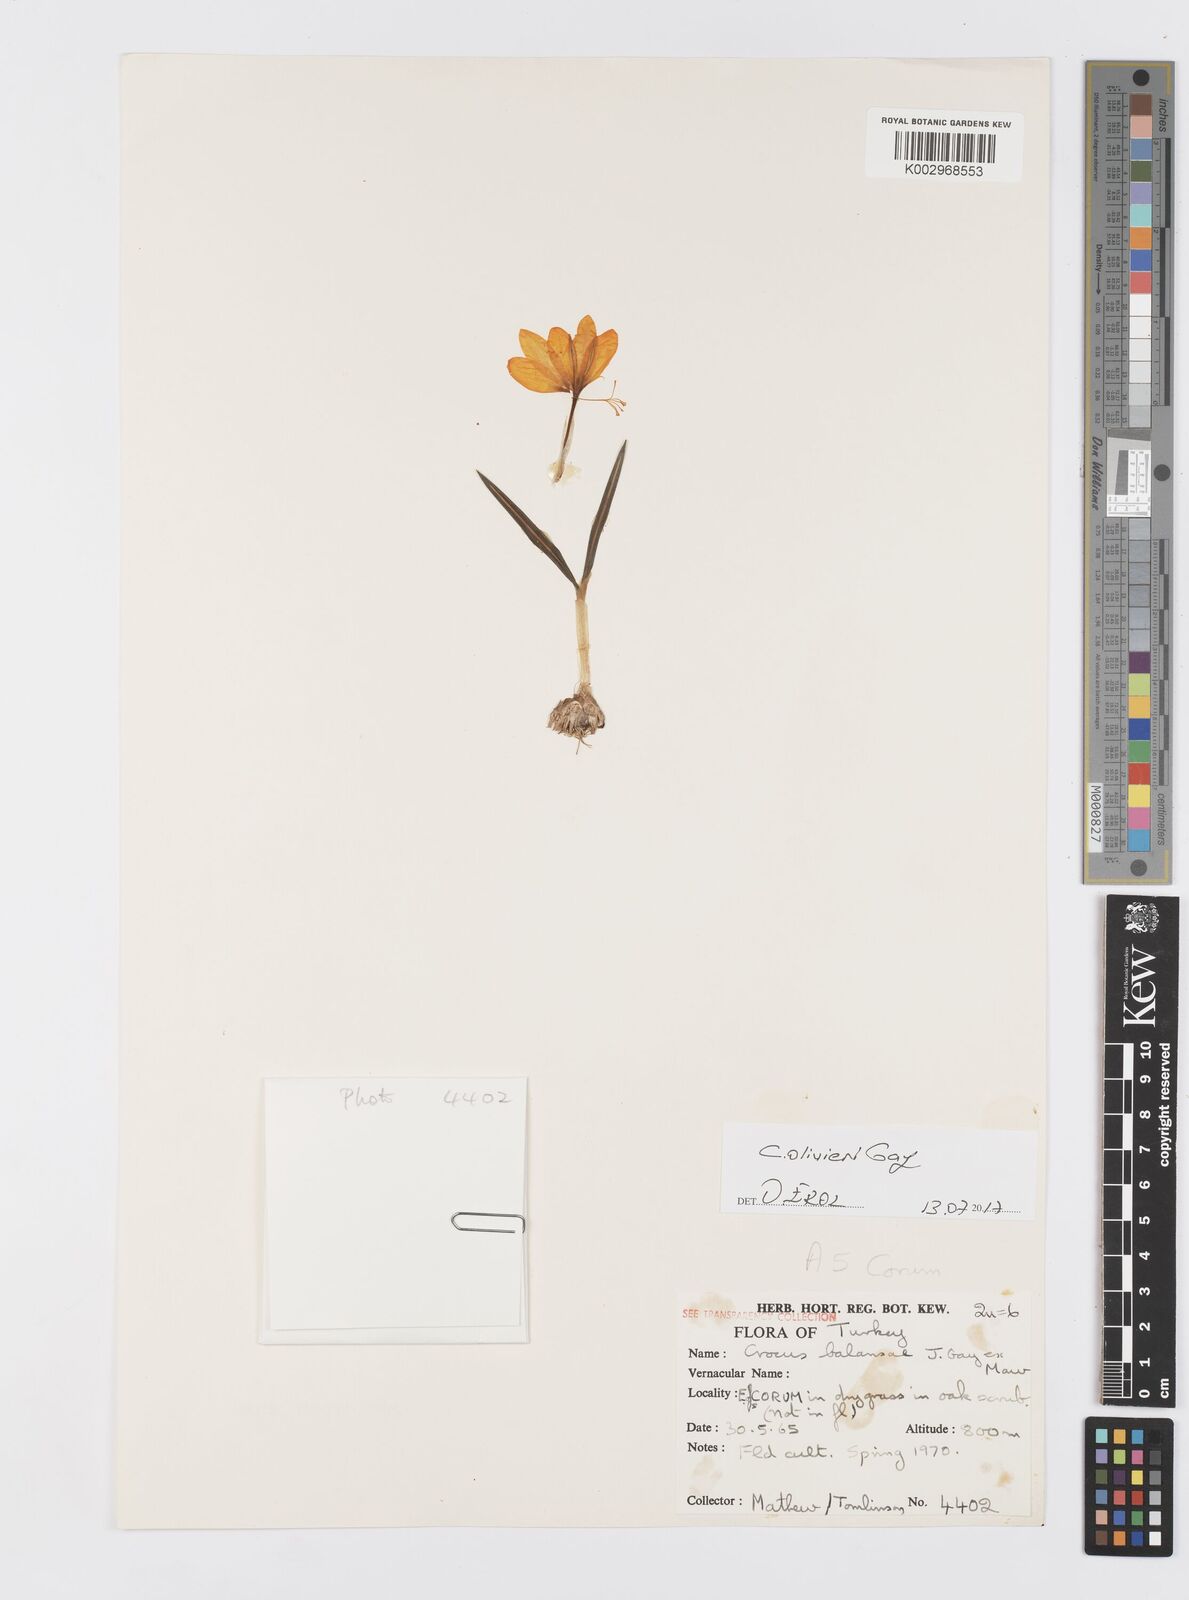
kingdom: Plantae
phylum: Tracheophyta
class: Liliopsida
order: Asparagales
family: Iridaceae
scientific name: Iridaceae
